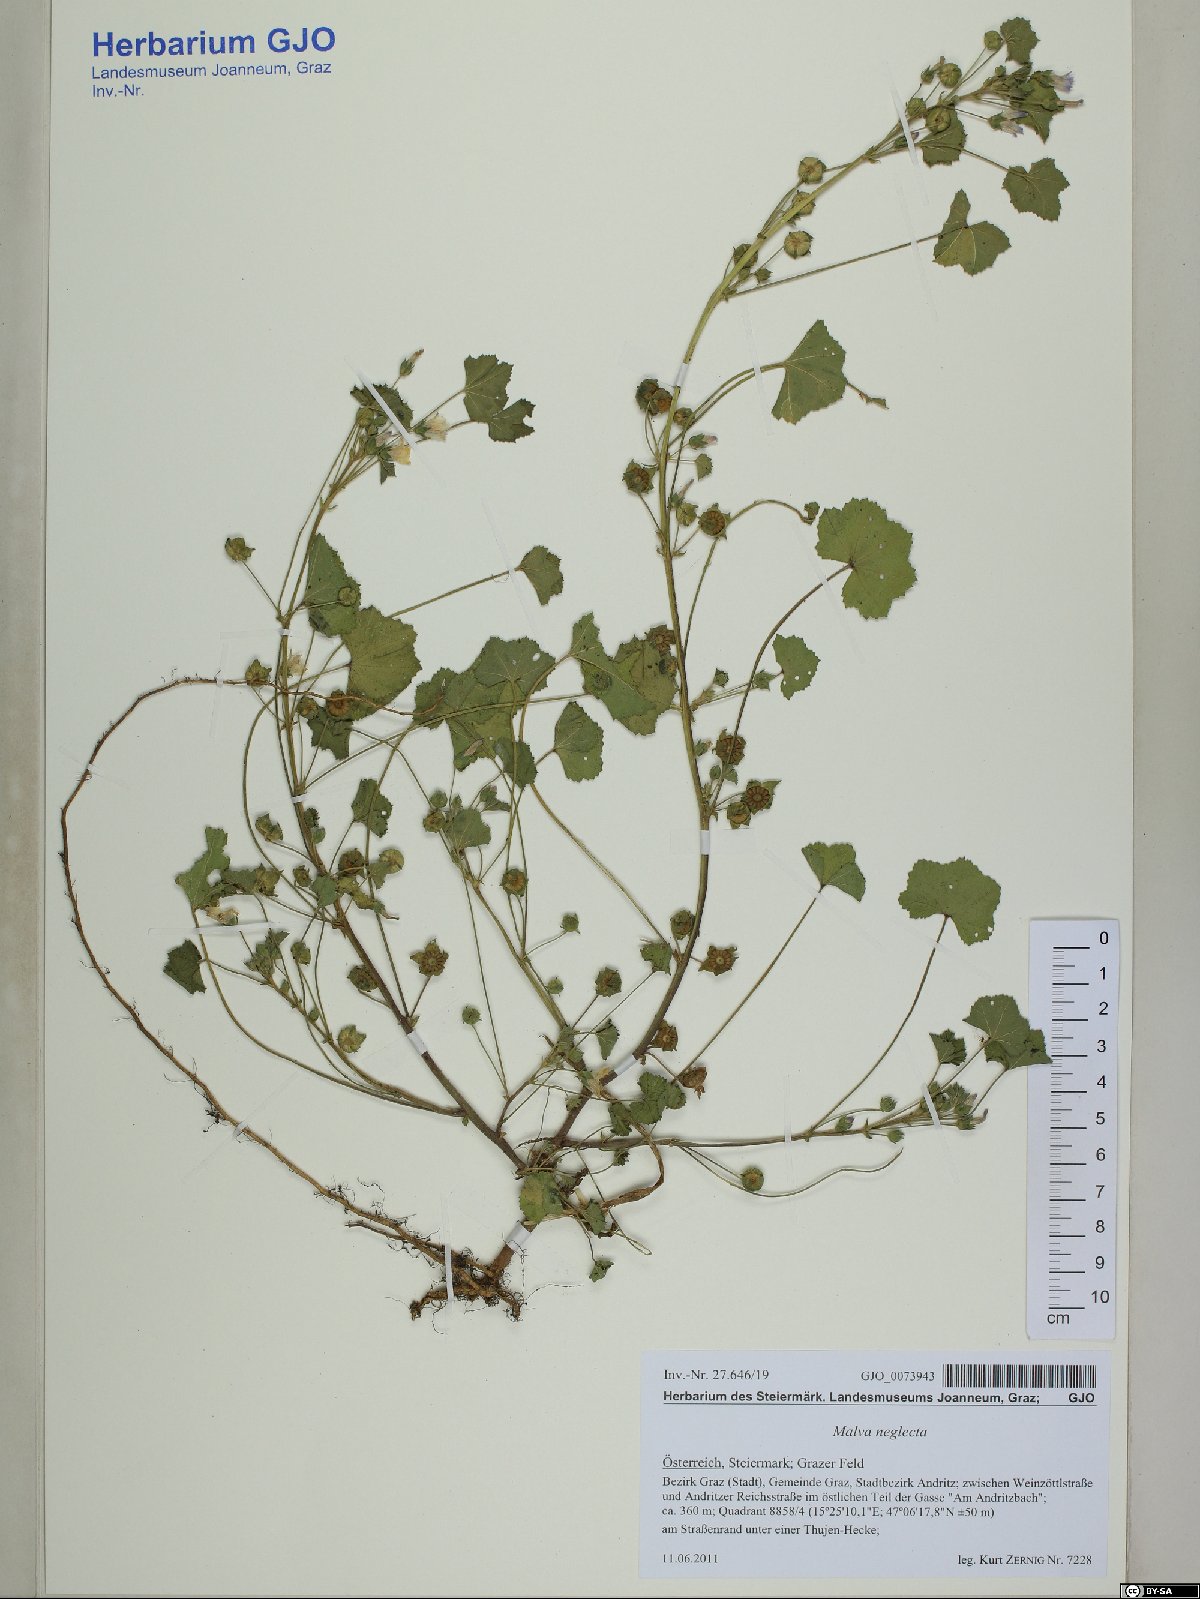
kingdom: Plantae
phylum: Tracheophyta
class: Magnoliopsida
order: Malvales
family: Malvaceae
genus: Malva
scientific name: Malva neglecta
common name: Common mallow
